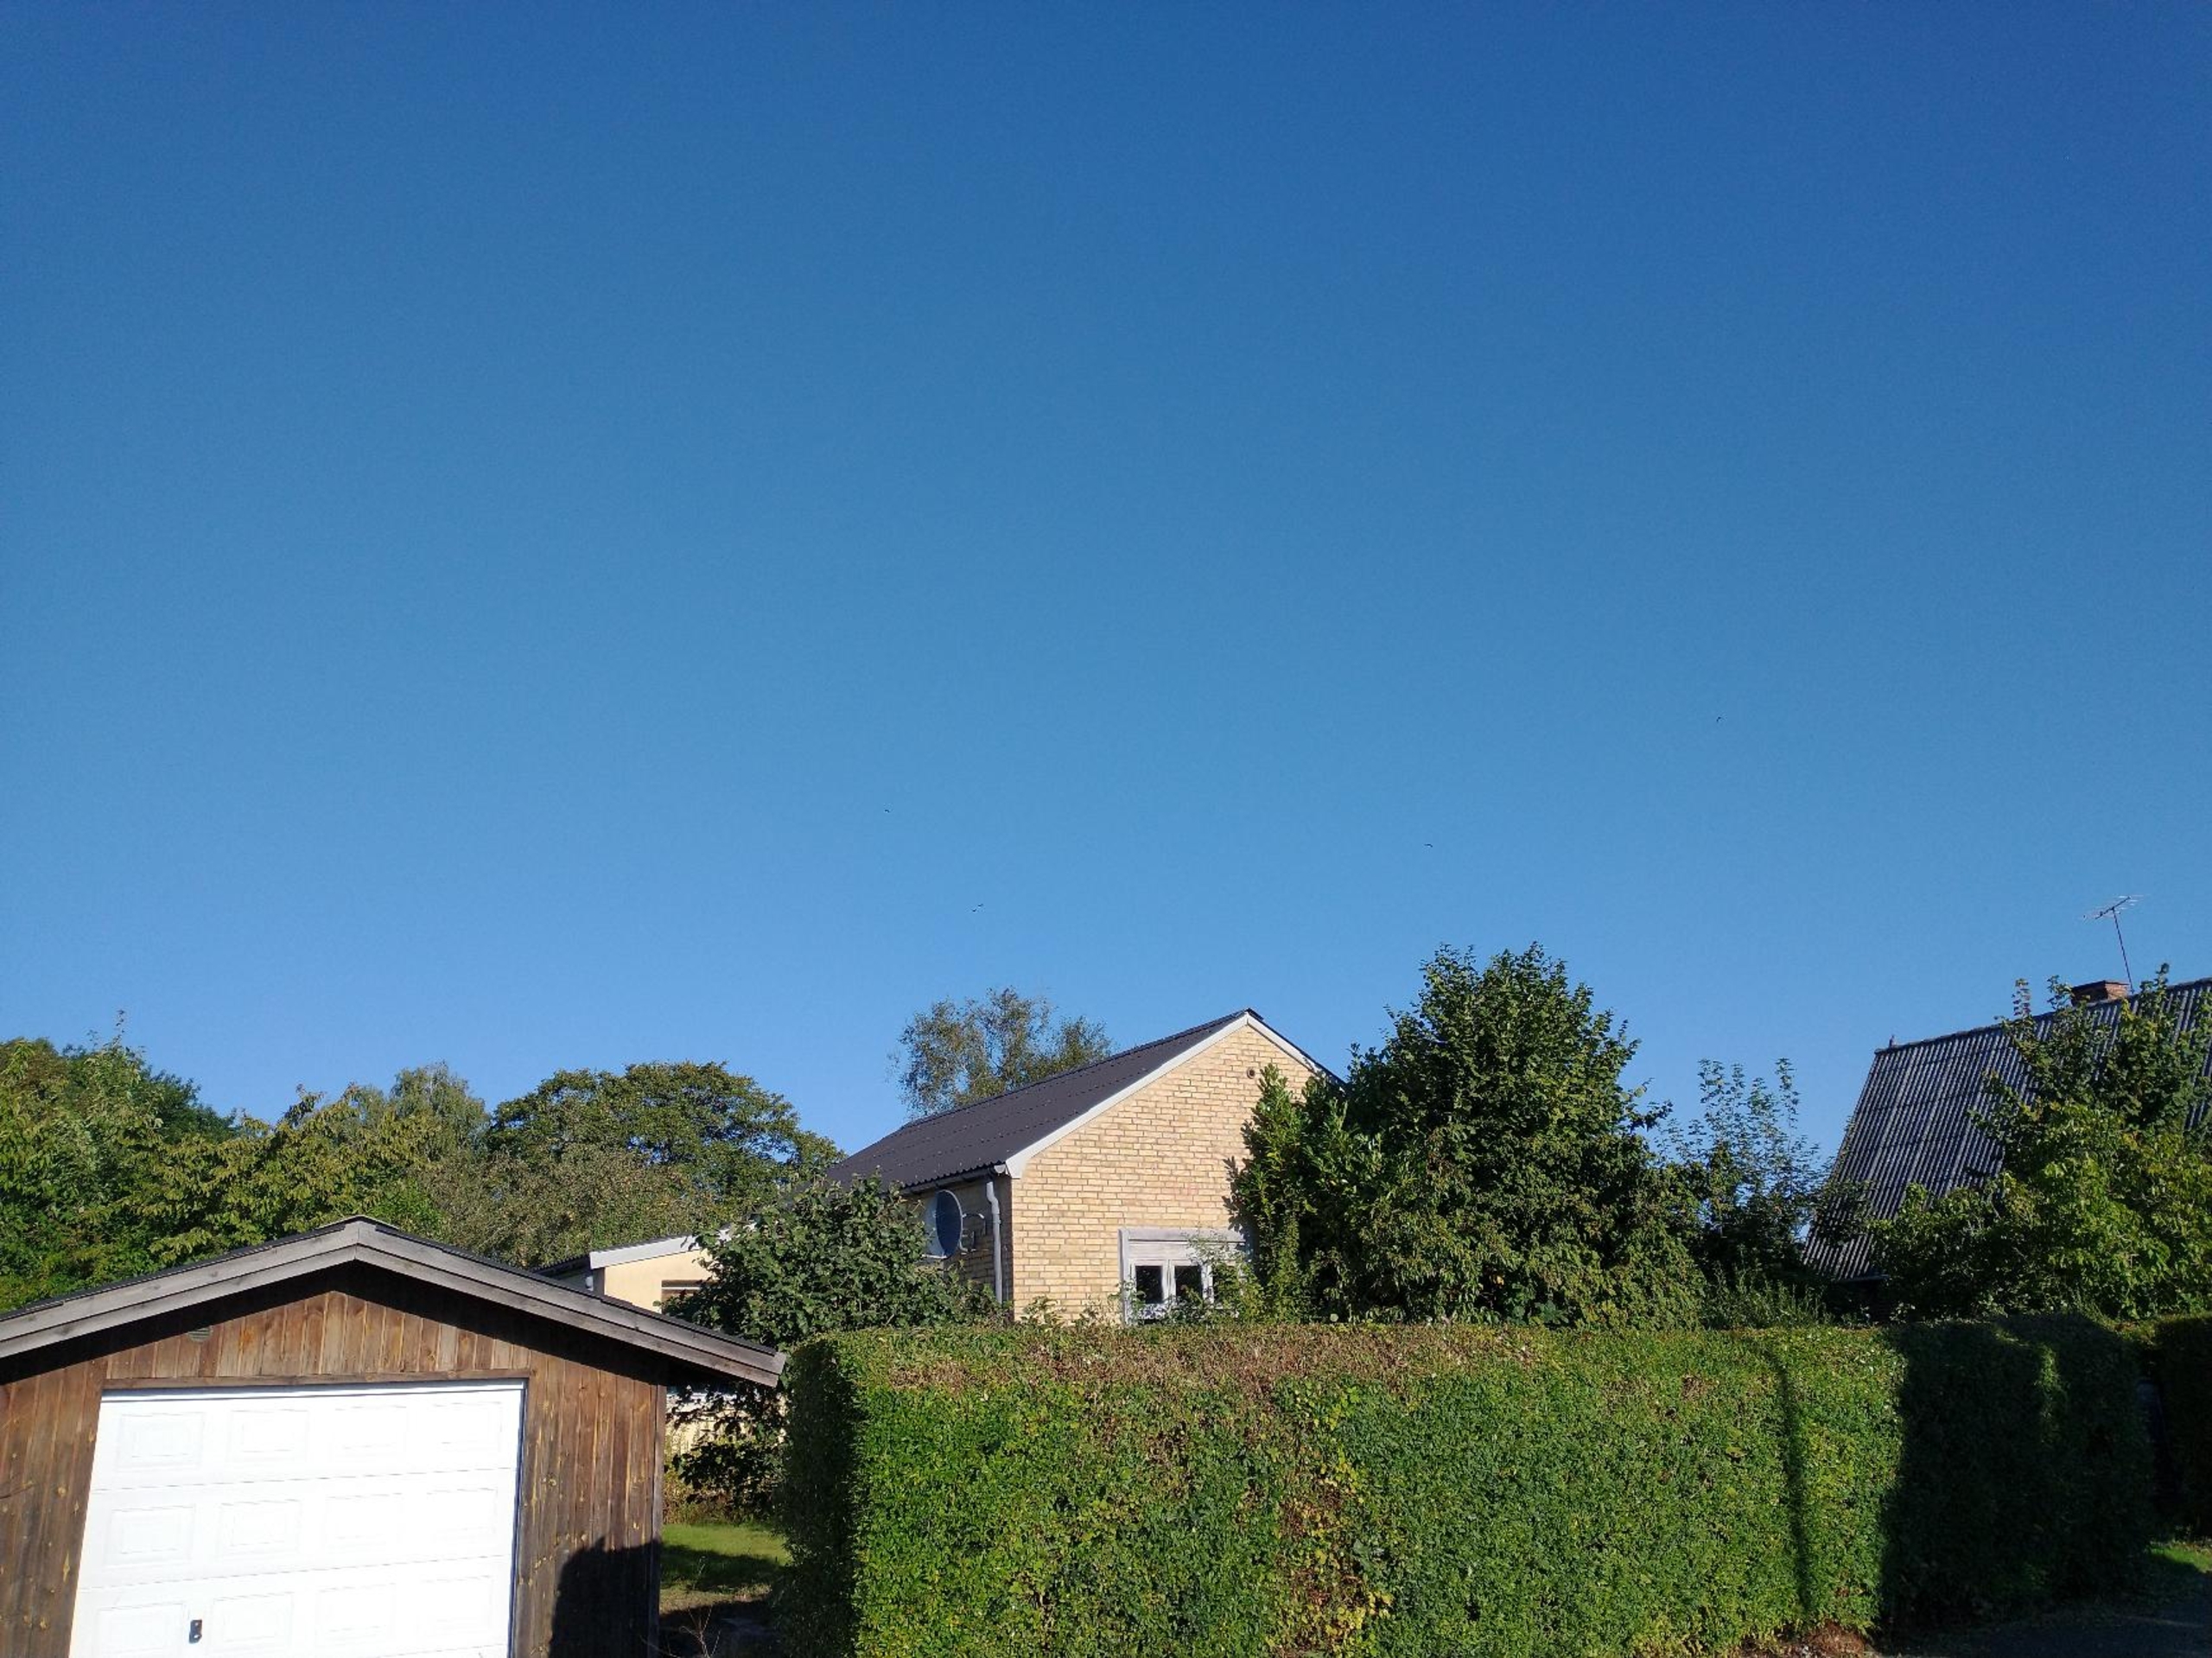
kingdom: Animalia
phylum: Chordata
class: Aves
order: Passeriformes
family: Corvidae
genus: Corvus
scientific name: Corvus corax
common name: Ravn
